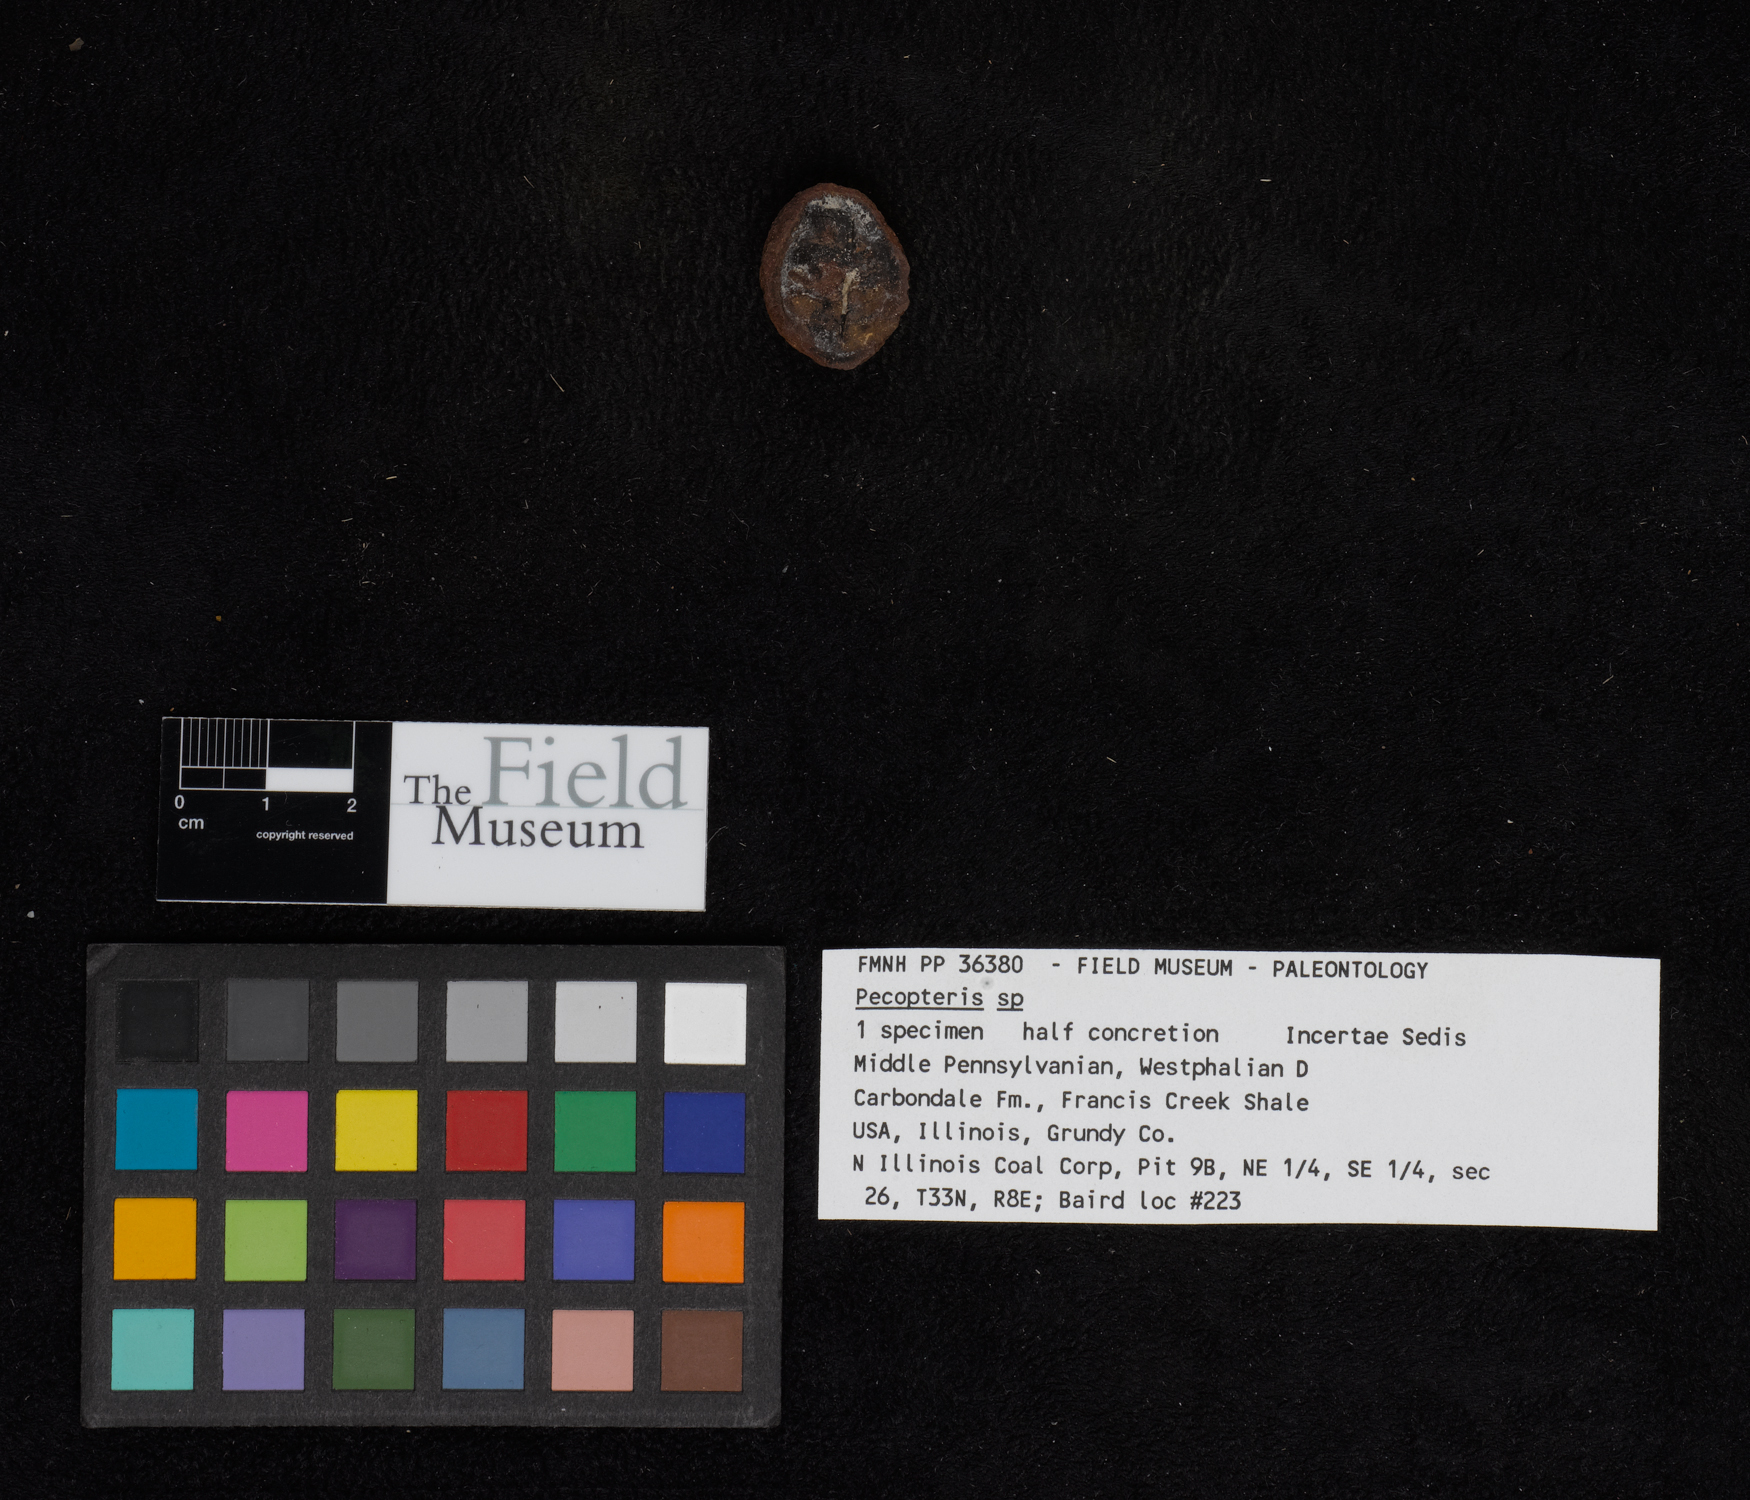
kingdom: Plantae
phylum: Tracheophyta
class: Polypodiopsida
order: Marattiales
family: Asterothecaceae
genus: Pecopteris
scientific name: Pecopteris
